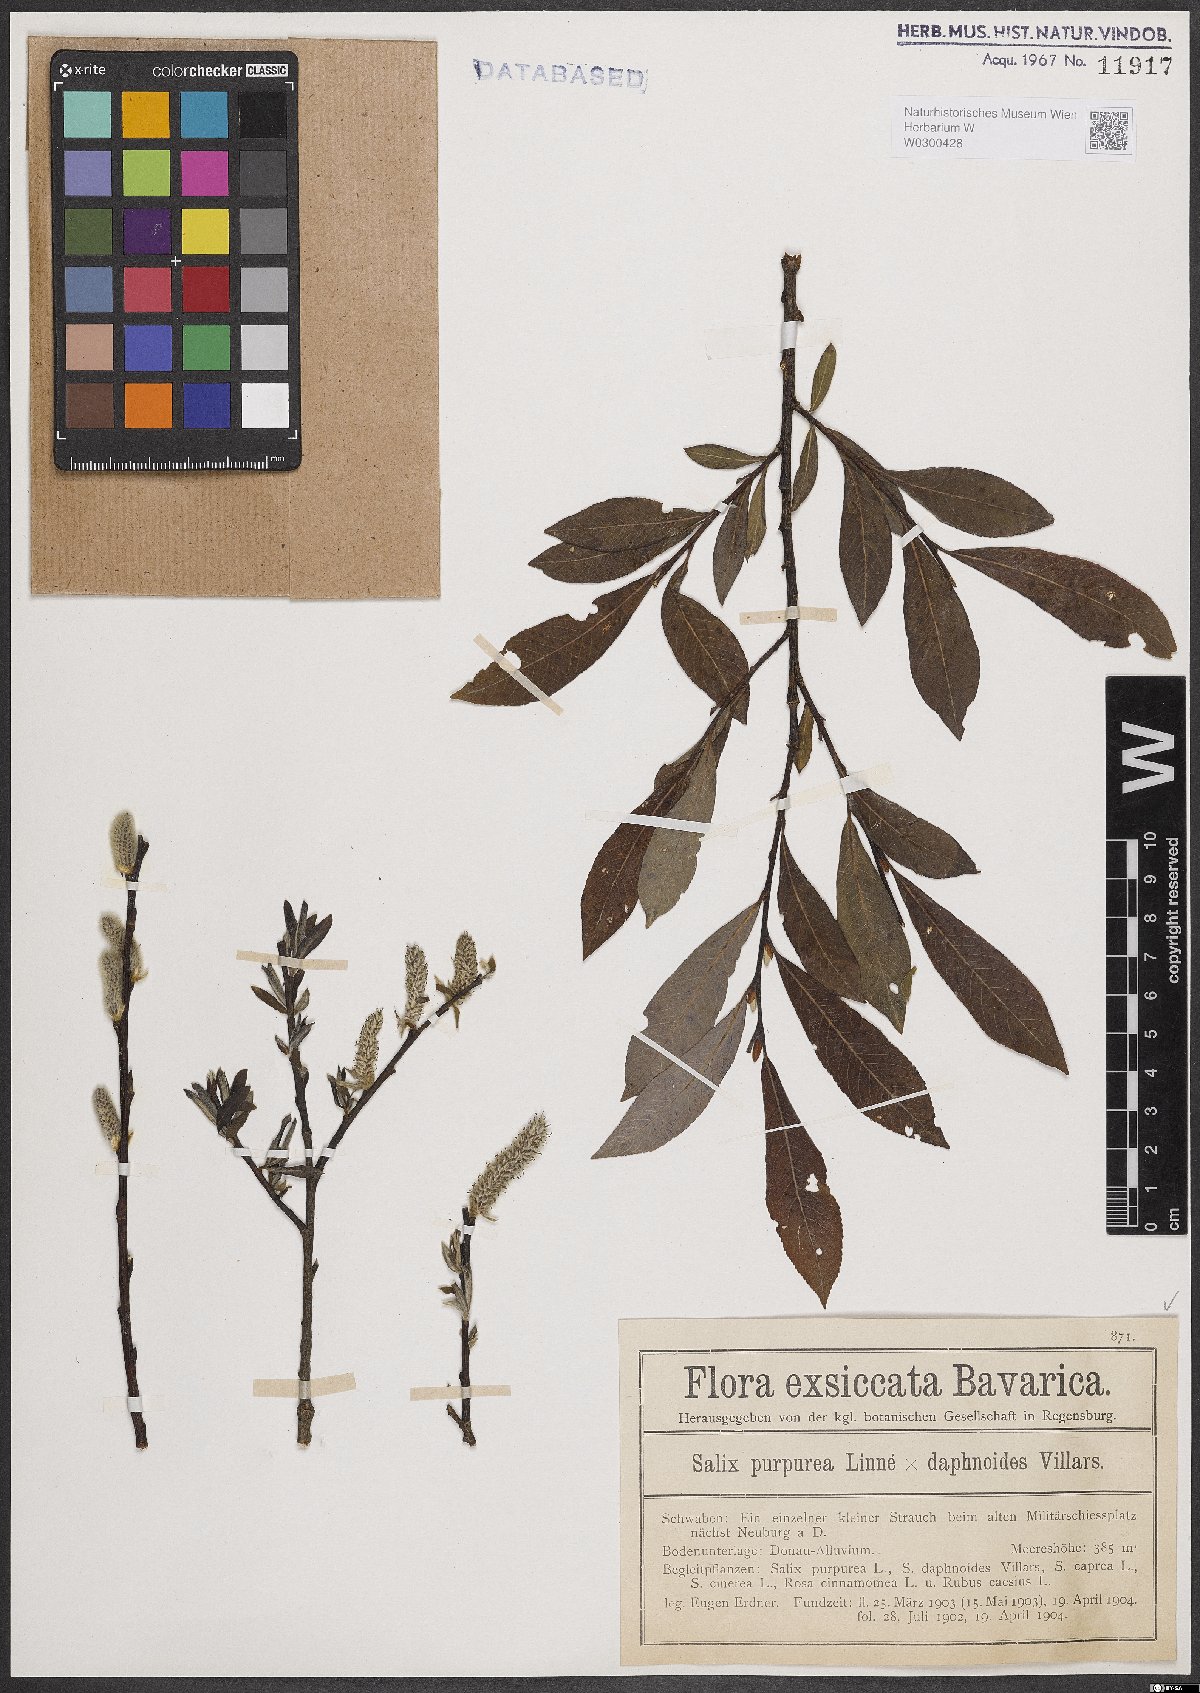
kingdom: Plantae
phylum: Tracheophyta
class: Magnoliopsida
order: Malpighiales
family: Salicaceae
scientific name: Salicaceae
